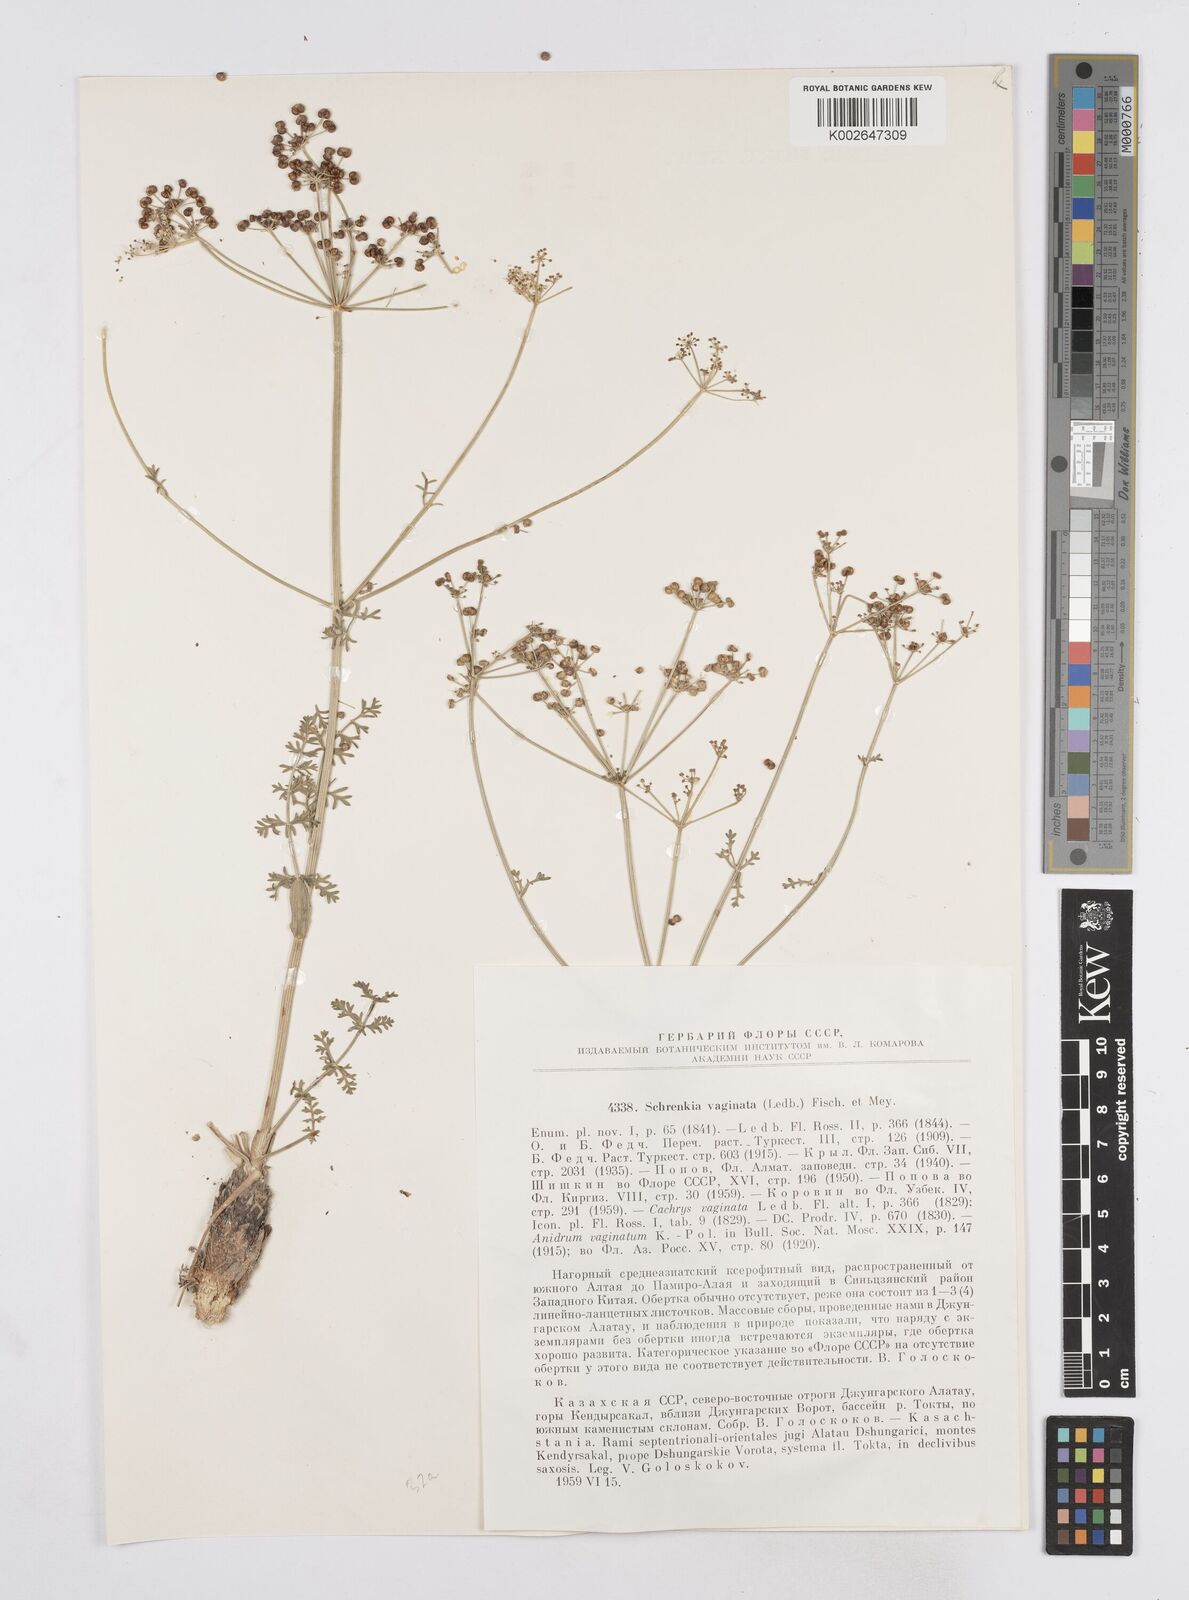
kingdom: Plantae
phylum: Tracheophyta
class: Magnoliopsida
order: Apiales
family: Apiaceae
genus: Schrenkia
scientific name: Schrenkia vaginata
